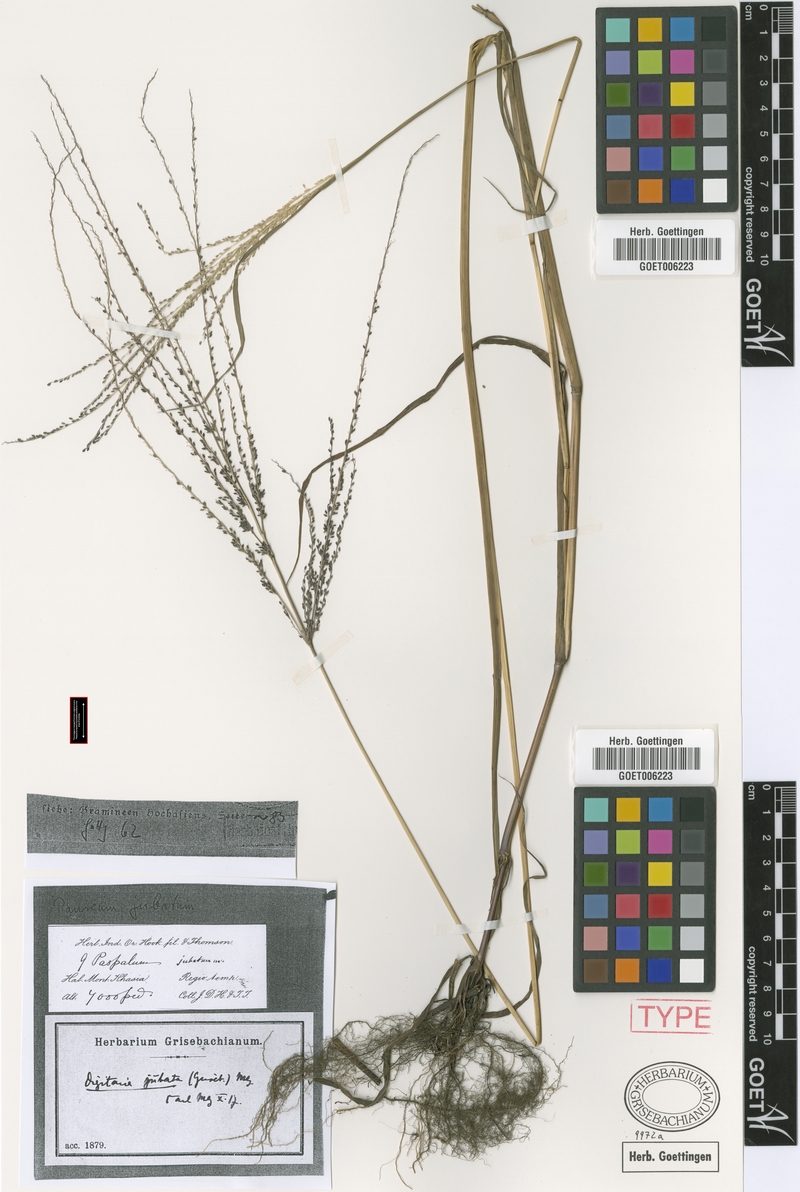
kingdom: Plantae
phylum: Tracheophyta
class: Liliopsida
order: Poales
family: Poaceae
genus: Digitaria
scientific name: Digitaria jubata
